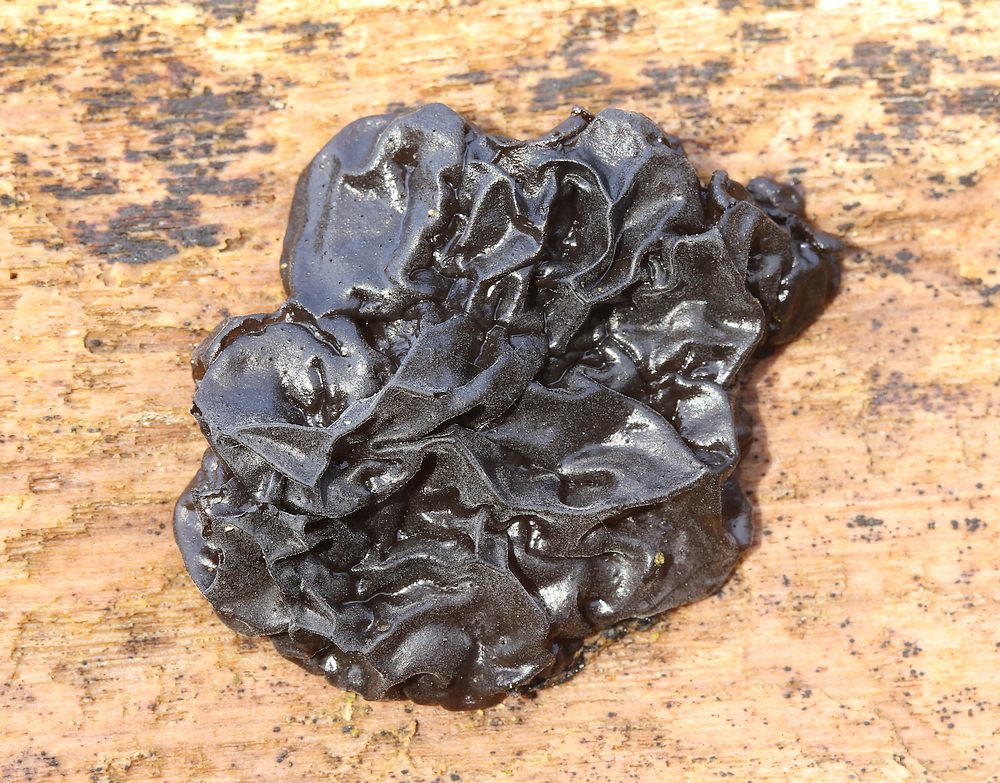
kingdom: Fungi
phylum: Basidiomycota
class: Agaricomycetes
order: Auriculariales
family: Auriculariaceae
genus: Exidia
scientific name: Exidia nigricans
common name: almindelig bævretop
